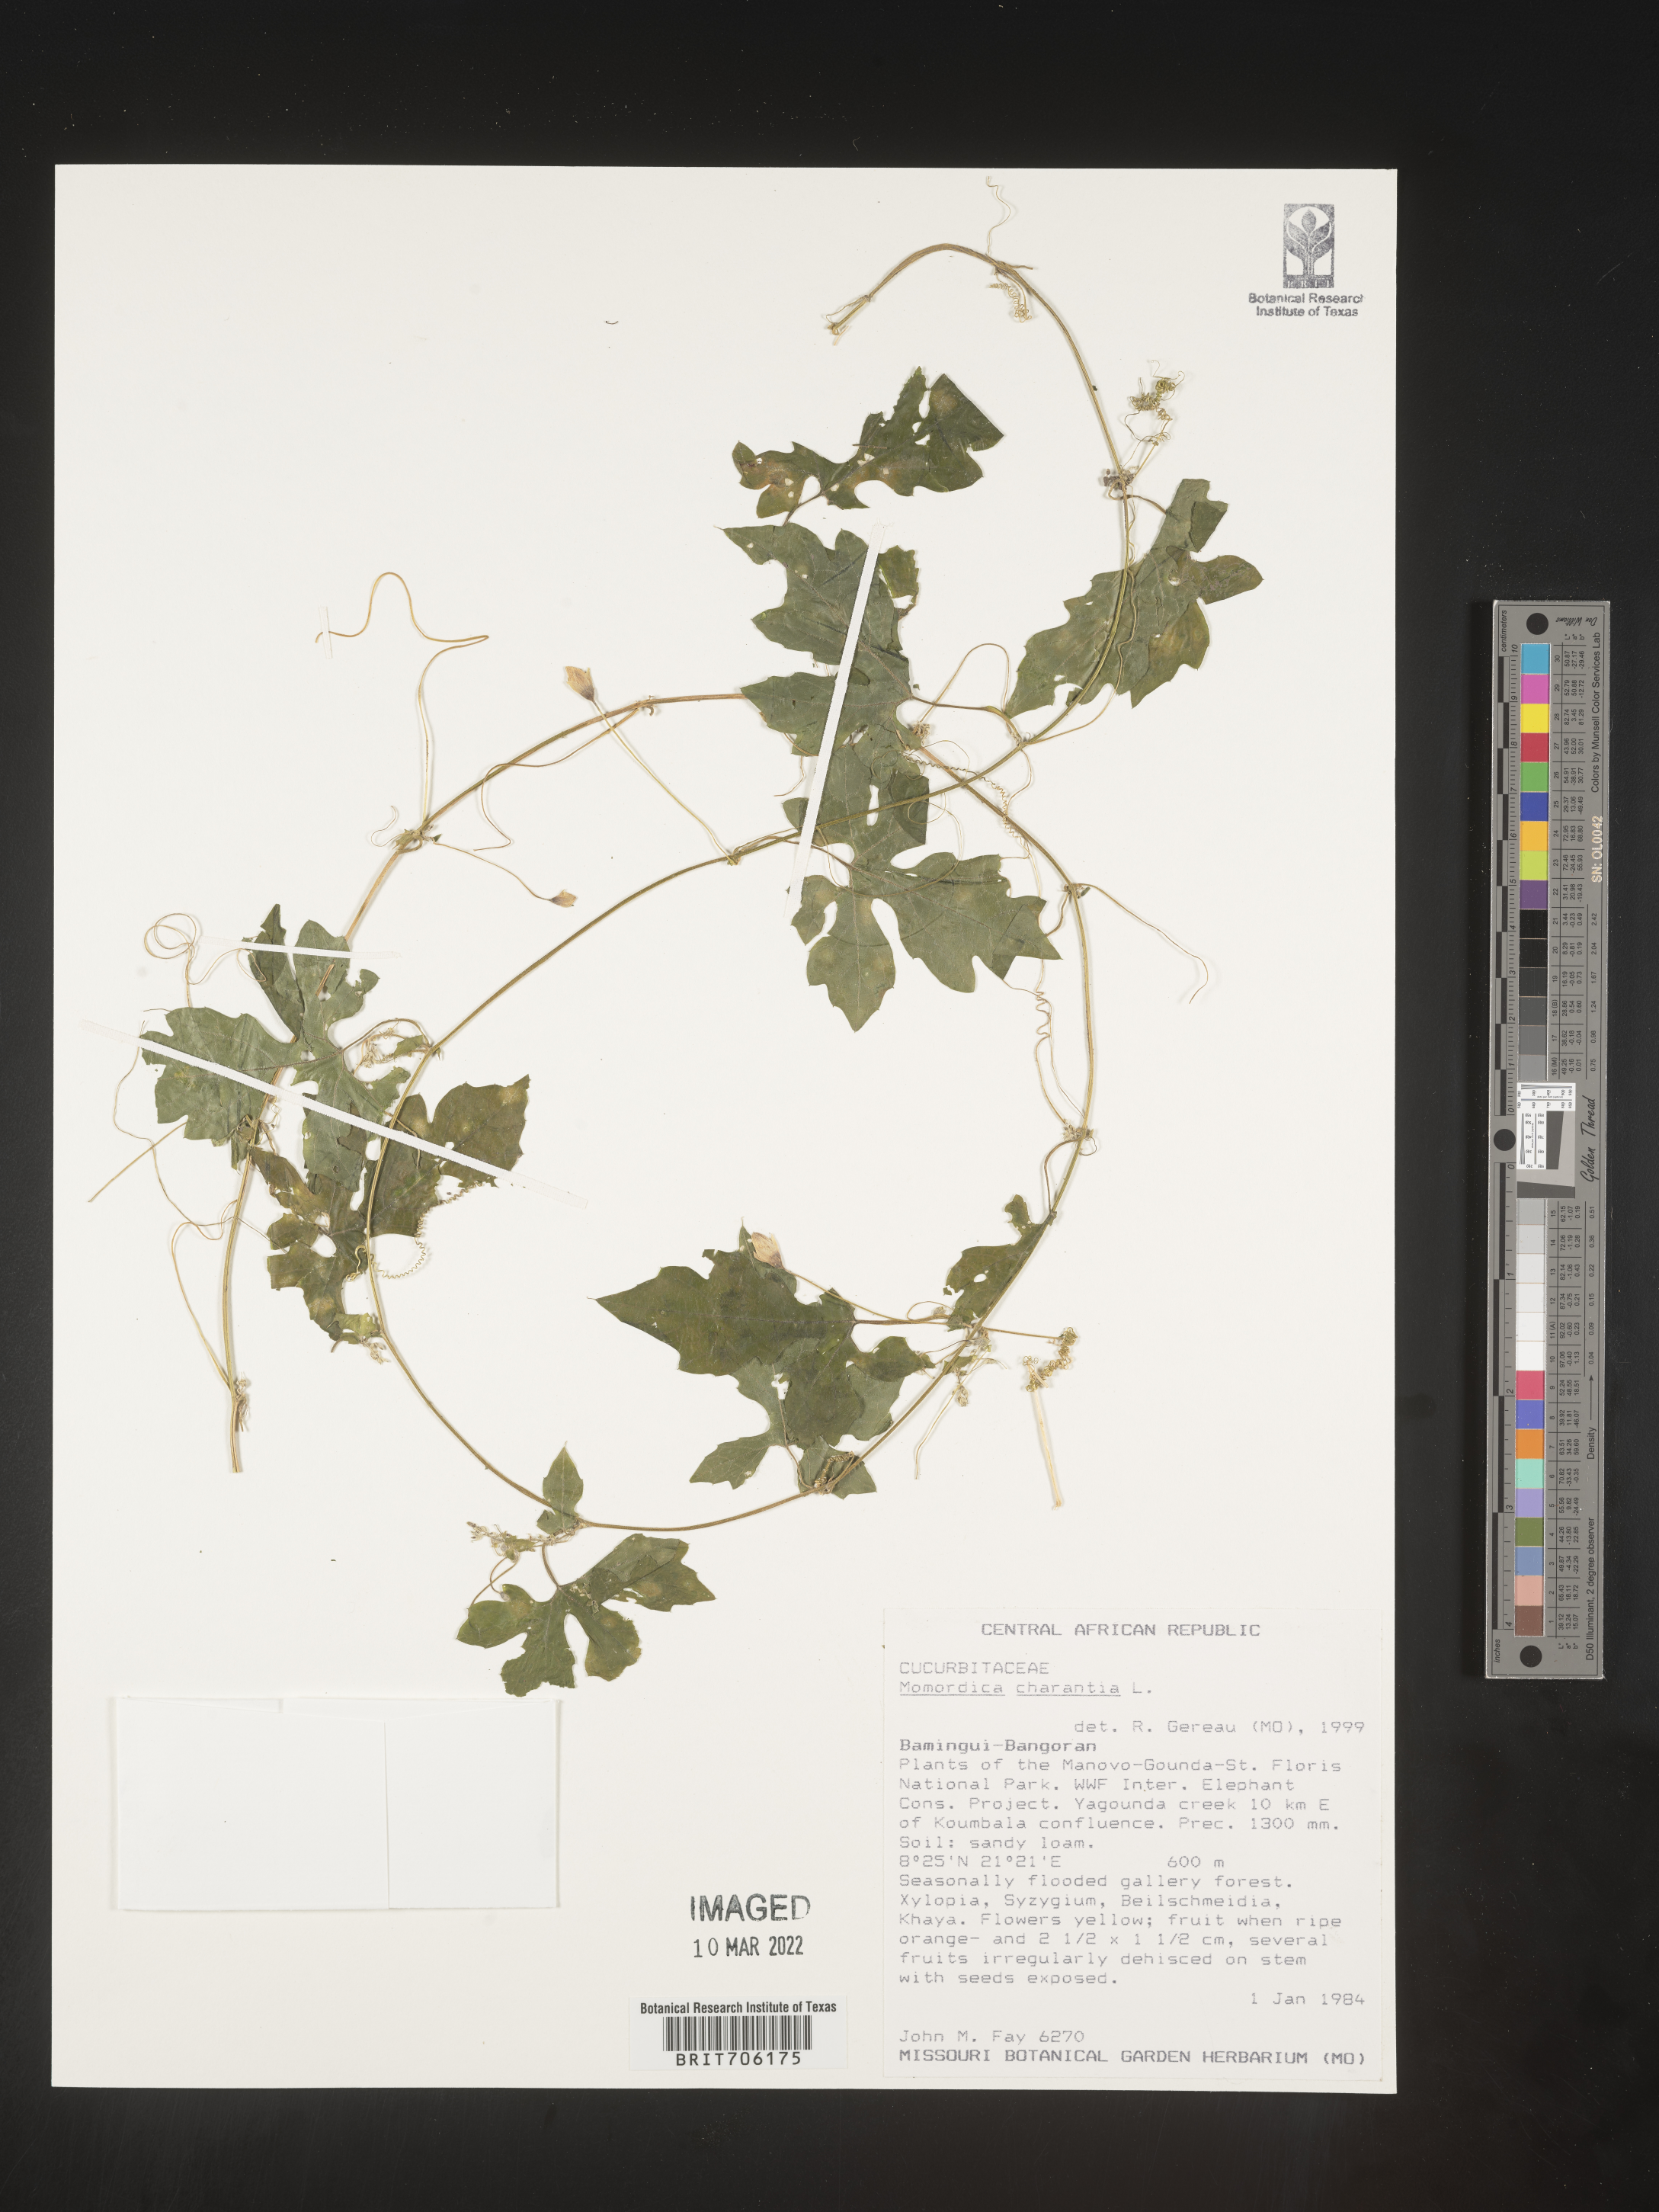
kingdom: Plantae
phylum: Tracheophyta
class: Magnoliopsida
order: Cucurbitales
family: Cucurbitaceae
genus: Momordica
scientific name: Momordica
